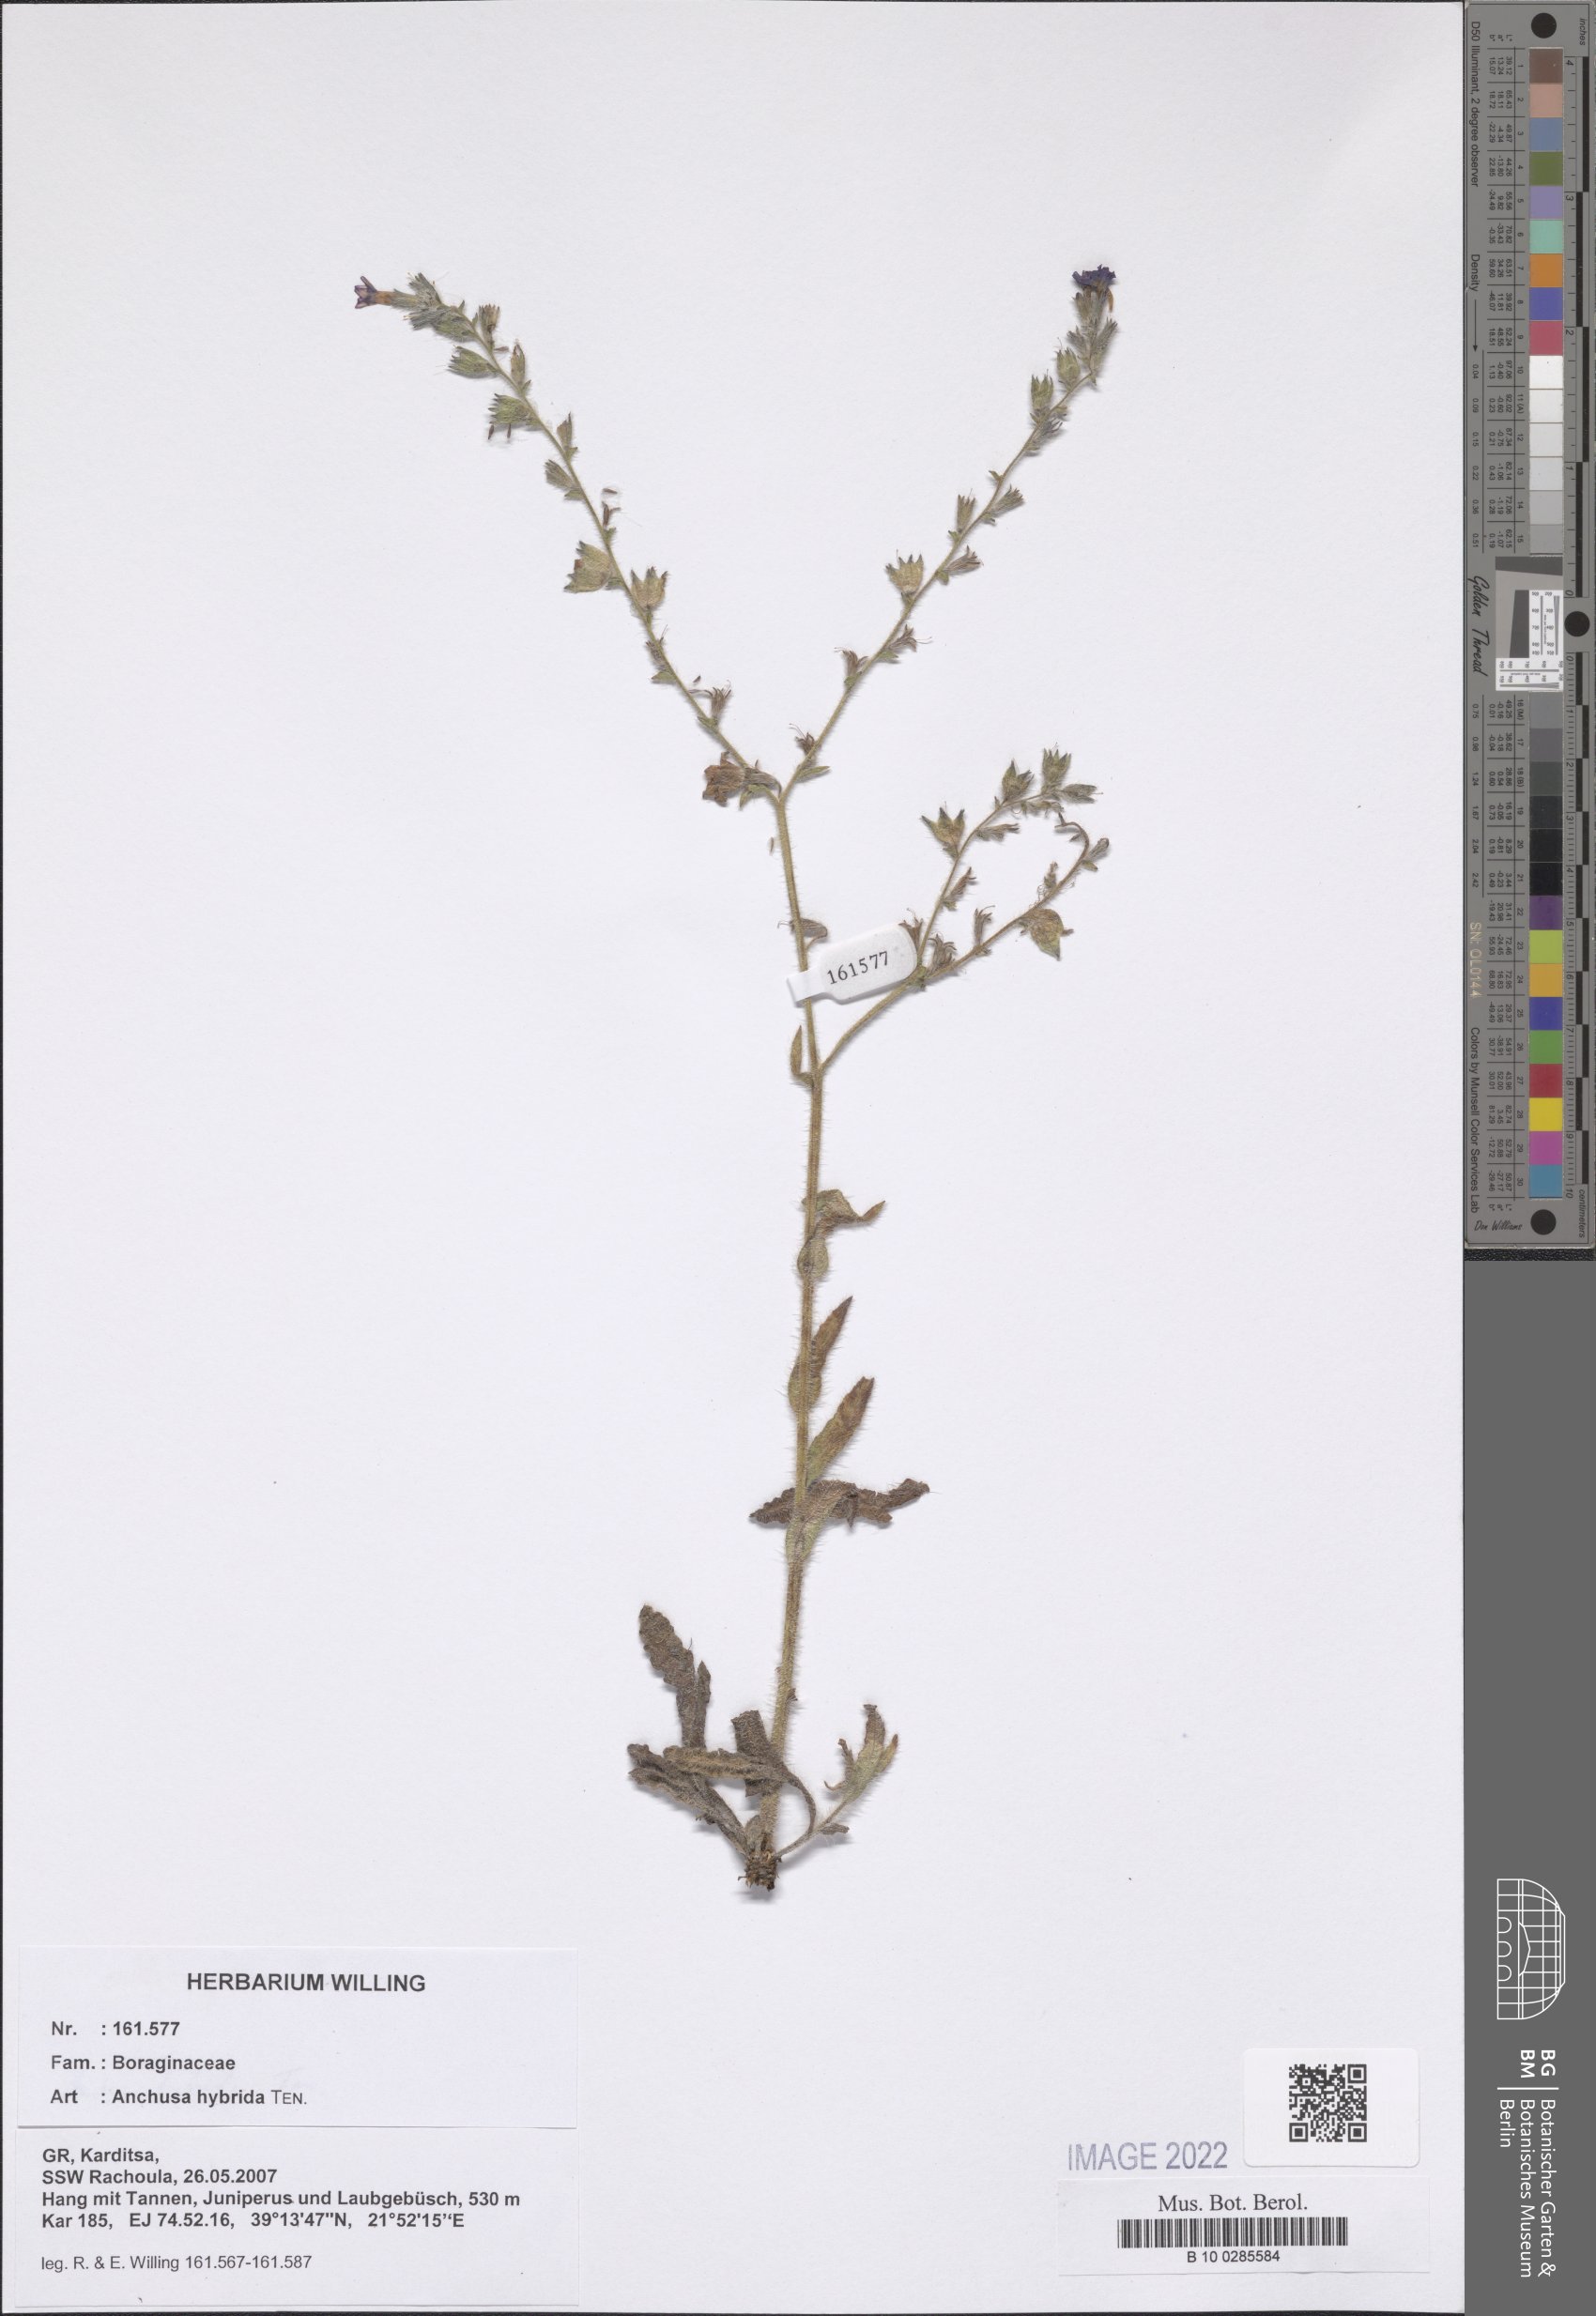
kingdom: Plantae
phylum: Tracheophyta
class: Magnoliopsida
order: Boraginales
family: Boraginaceae
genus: Anchusa
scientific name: Anchusa hybrida
